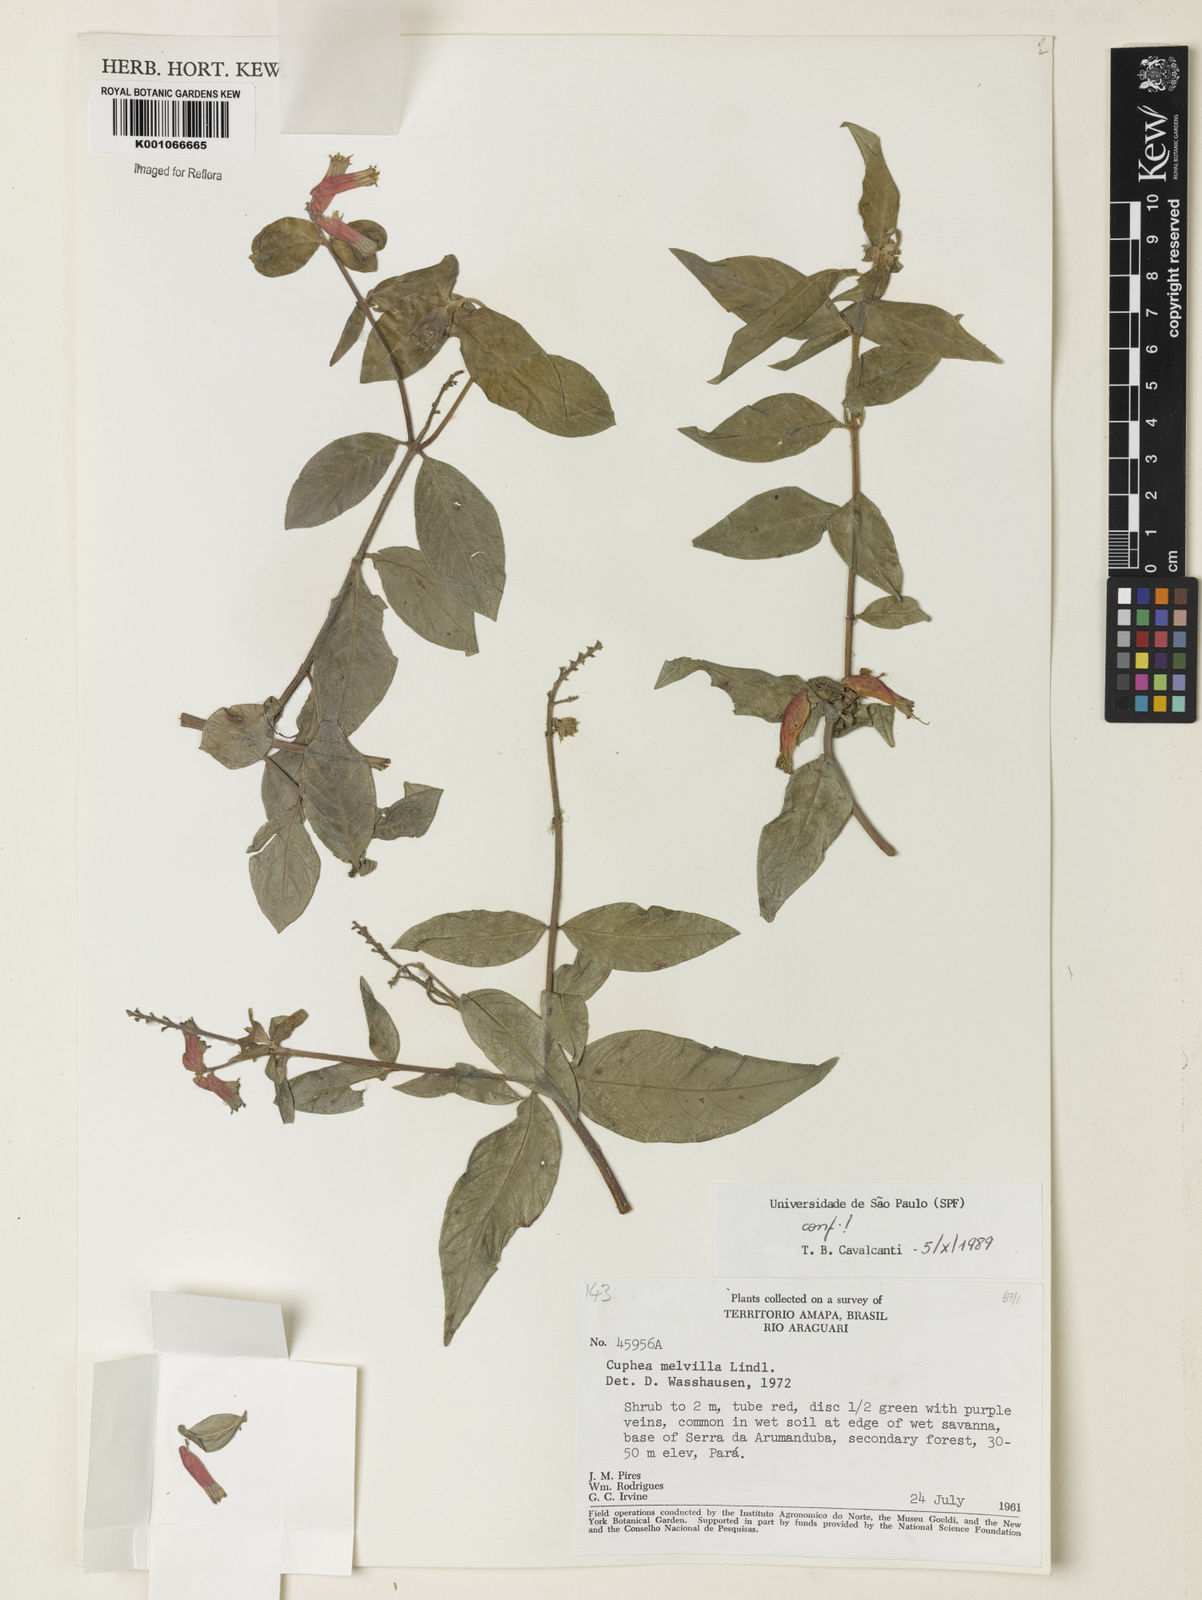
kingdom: Plantae
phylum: Tracheophyta
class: Magnoliopsida
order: Myrtales
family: Lythraceae
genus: Cuphea
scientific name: Cuphea melvilla
